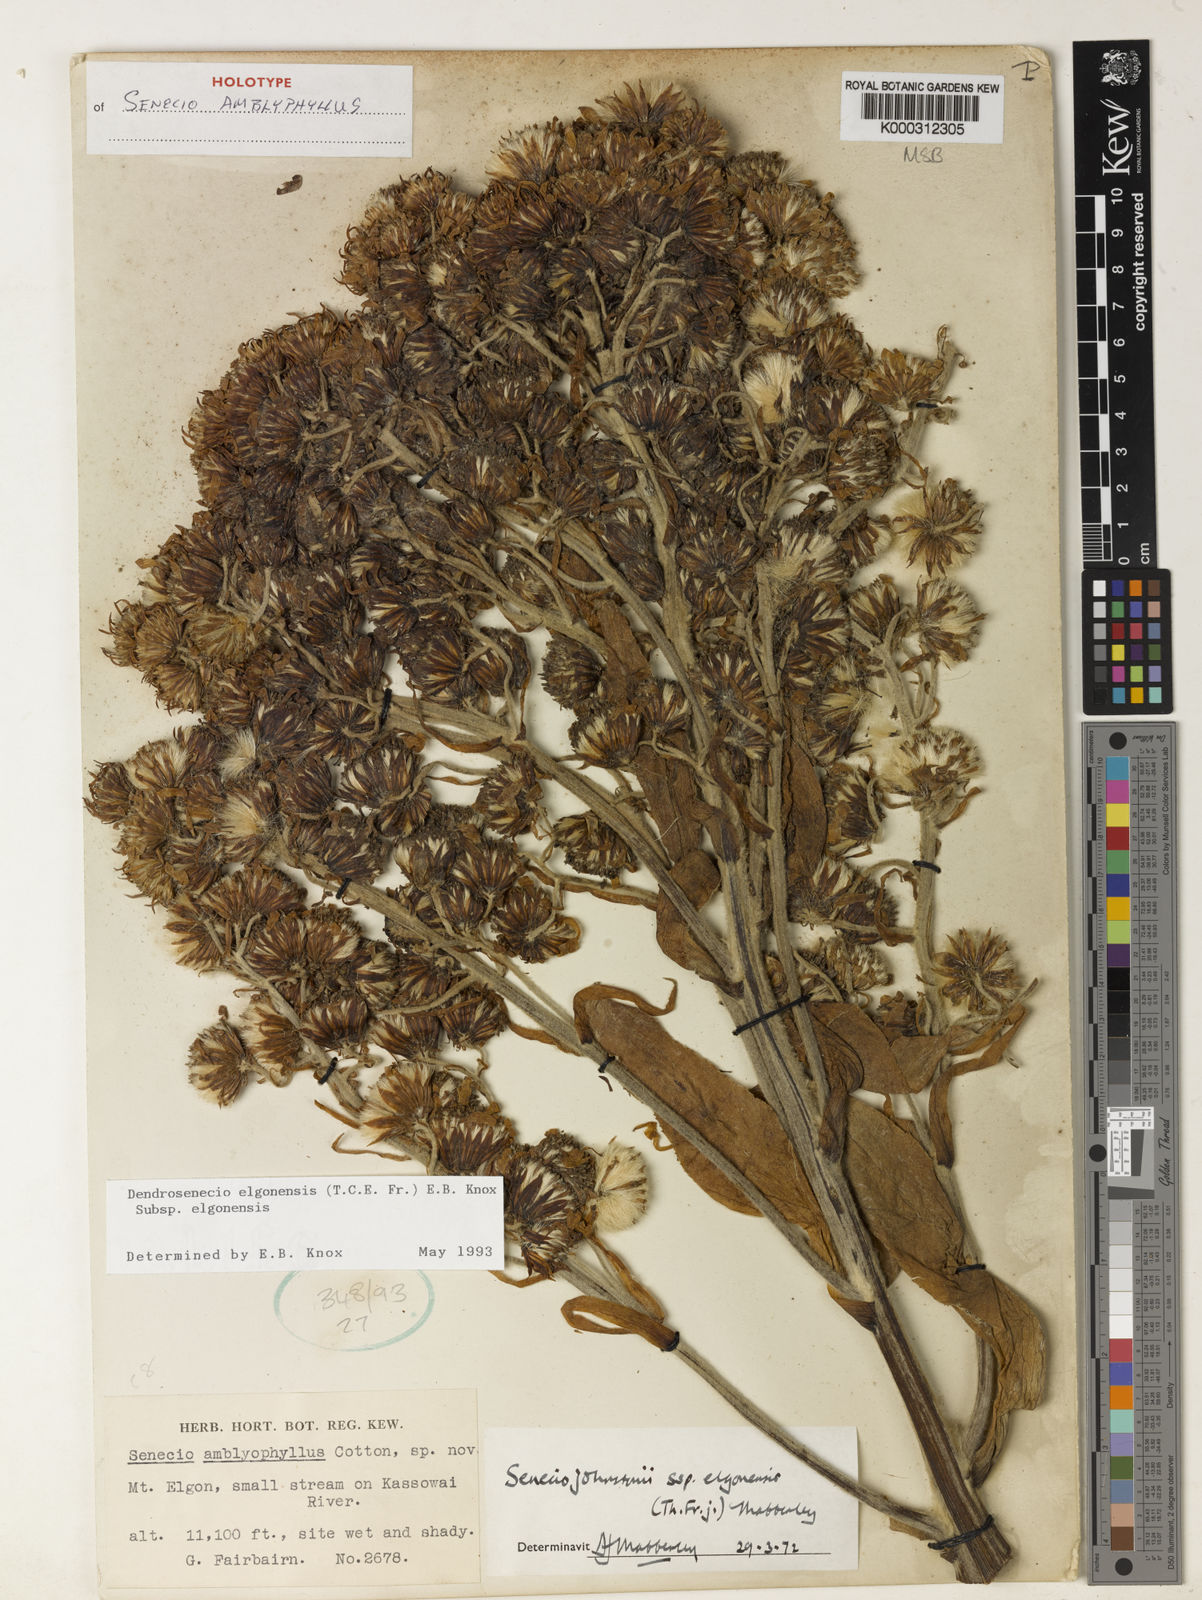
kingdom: Plantae
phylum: Tracheophyta
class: Magnoliopsida
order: Asterales
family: Asteraceae
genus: Dendrosenecio
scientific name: Dendrosenecio elgonensis
